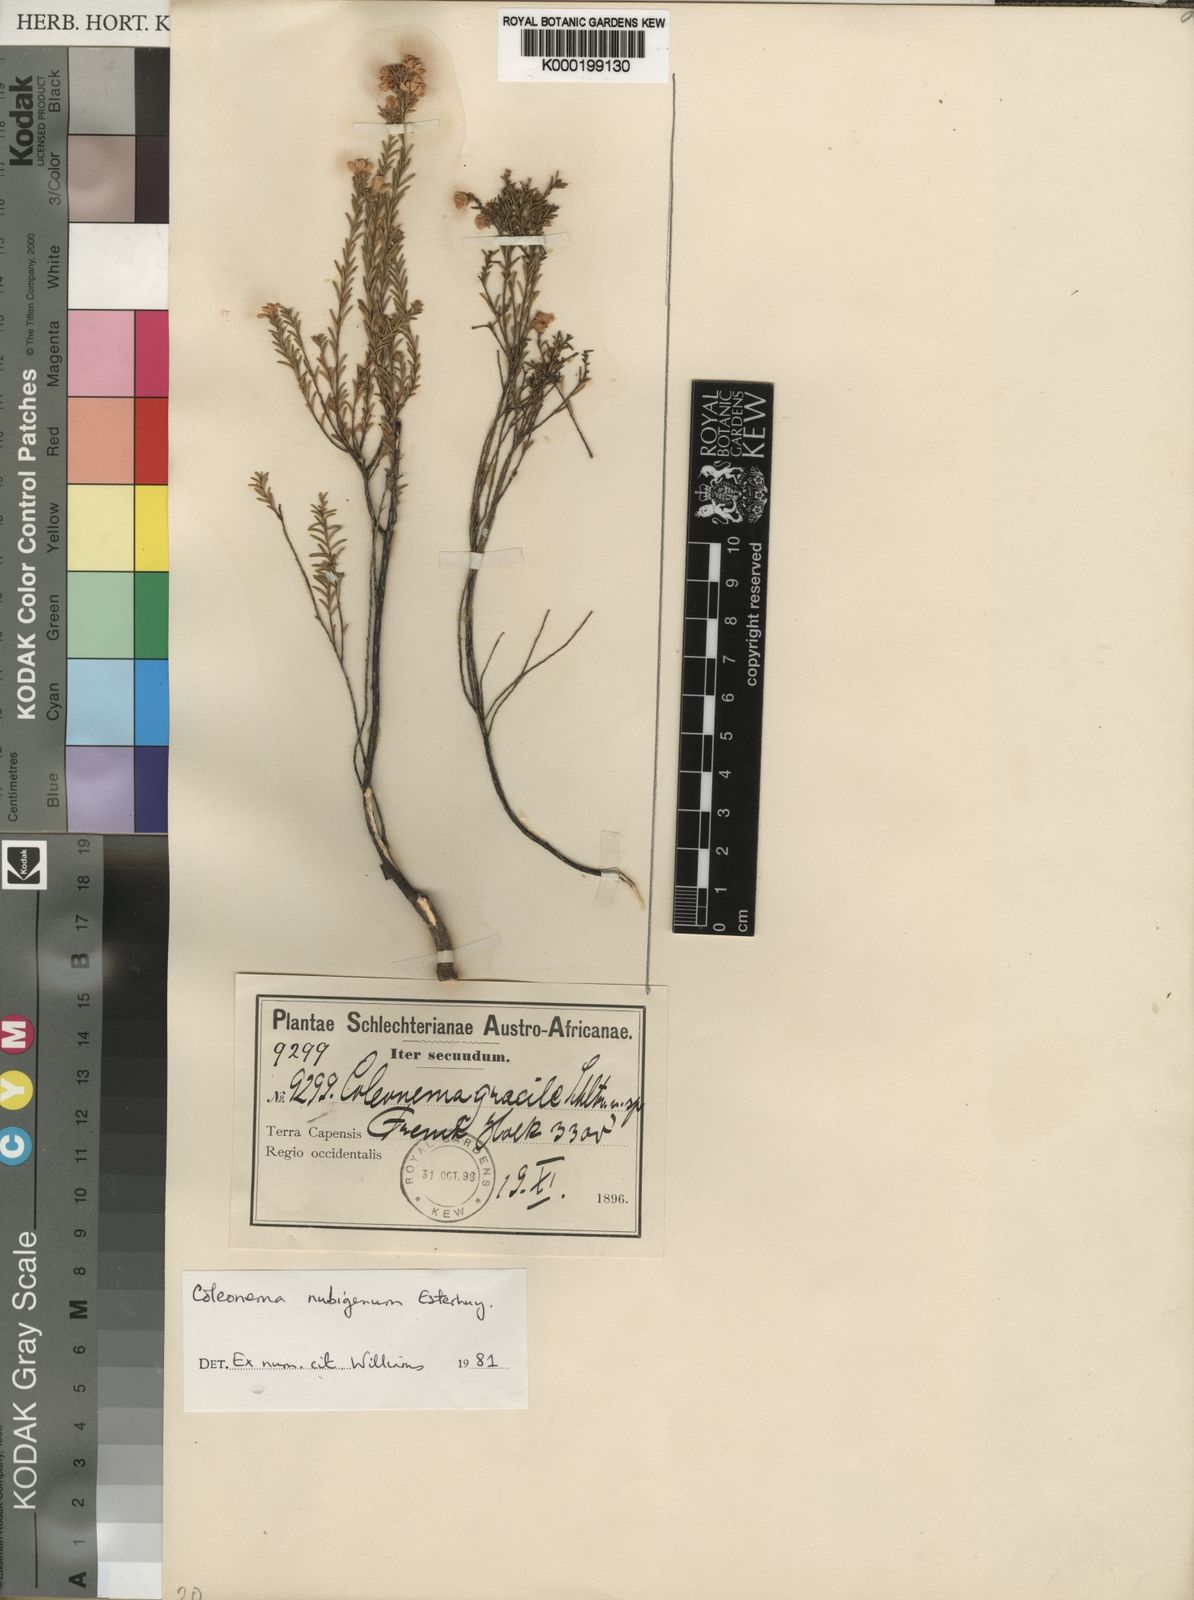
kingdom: Plantae
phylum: Tracheophyta
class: Magnoliopsida
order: Sapindales
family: Rutaceae
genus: Coleonema
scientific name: Coleonema nubigena
